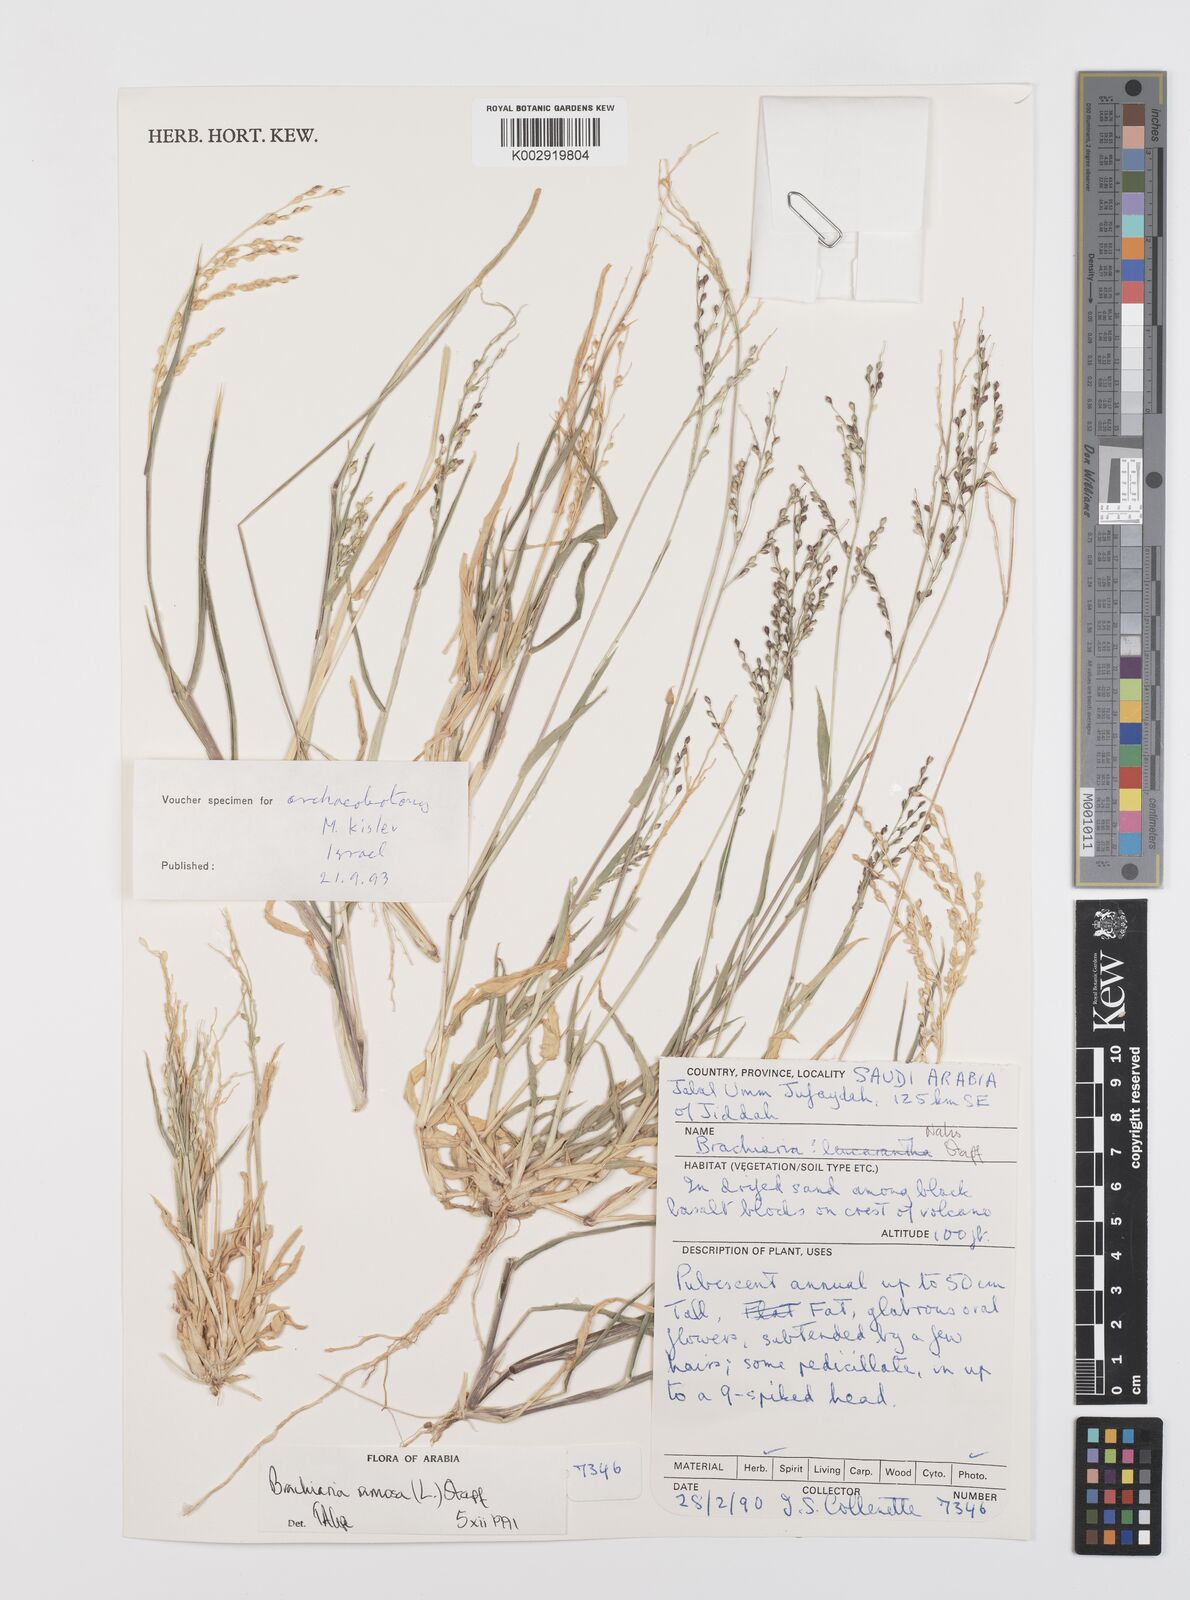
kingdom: Plantae
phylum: Tracheophyta
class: Liliopsida
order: Poales
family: Poaceae
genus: Urochloa
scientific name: Urochloa ramosa
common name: Browntop millet
